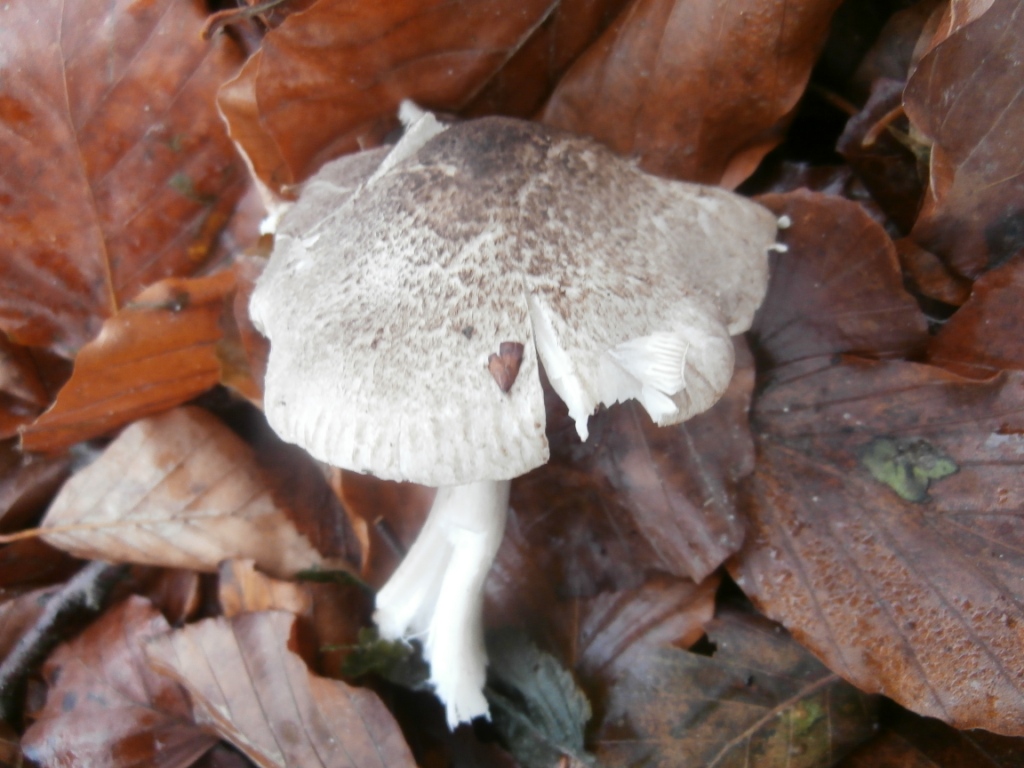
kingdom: Fungi
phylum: Basidiomycota
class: Agaricomycetes
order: Agaricales
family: Tricholomataceae
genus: Tricholoma
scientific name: Tricholoma scalpturatum
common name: gulplettet ridderhat
